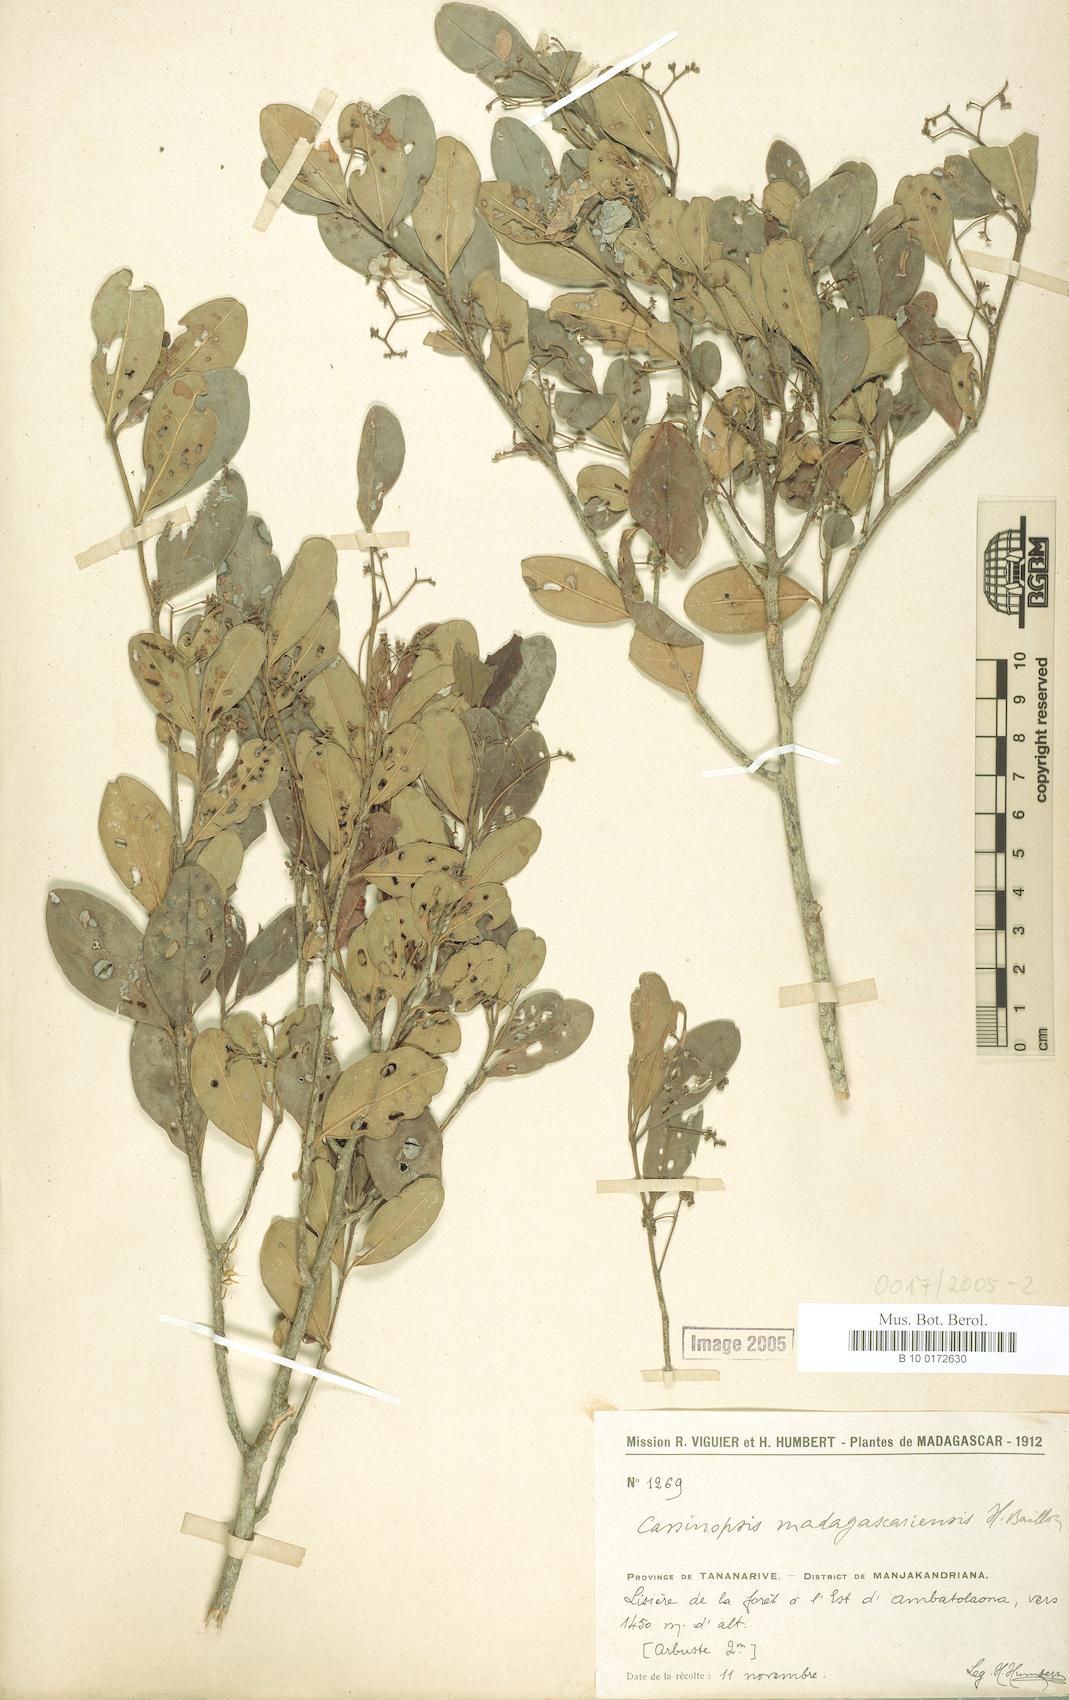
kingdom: Plantae
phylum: Tracheophyta
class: Magnoliopsida
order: Icacinales
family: Icacinaceae
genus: Cassinopsis
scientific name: Cassinopsis madagascariensis
